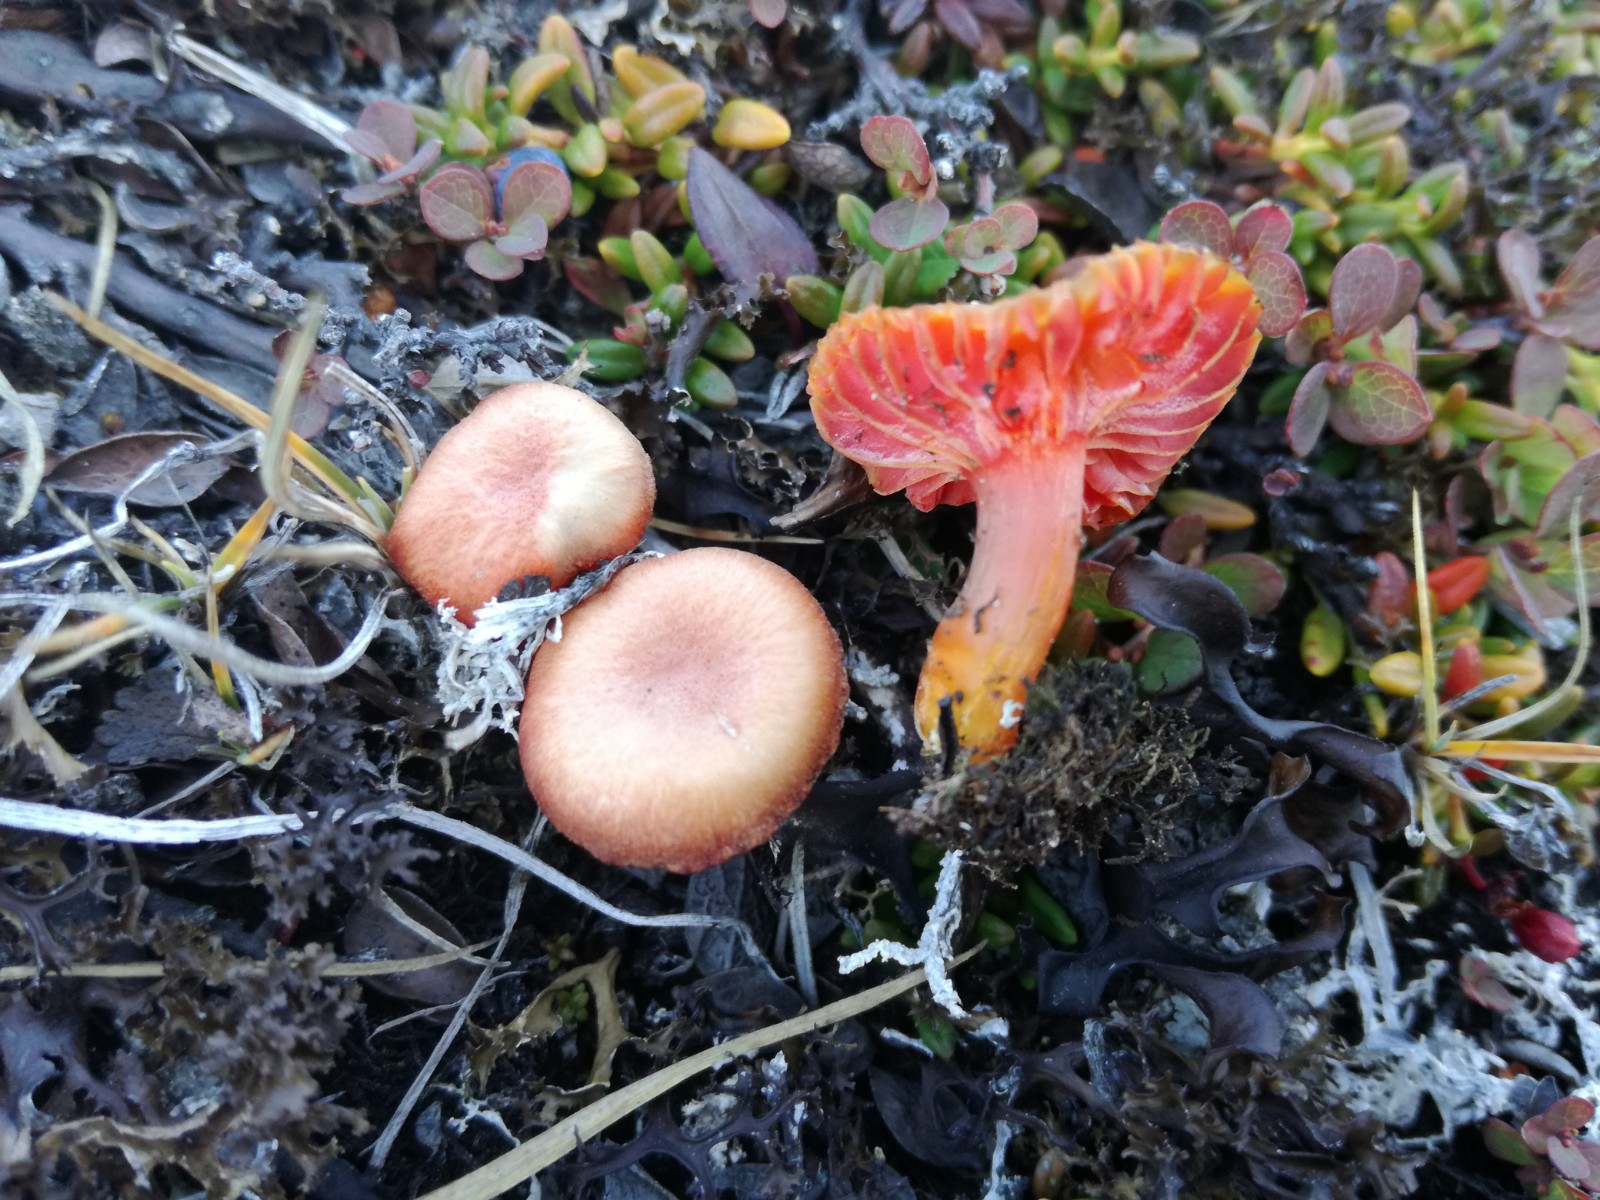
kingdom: Fungi
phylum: Basidiomycota
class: Agaricomycetes
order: Agaricales
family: Hygrophoraceae
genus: Hygrocybe
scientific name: Hygrocybe
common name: vokshat
